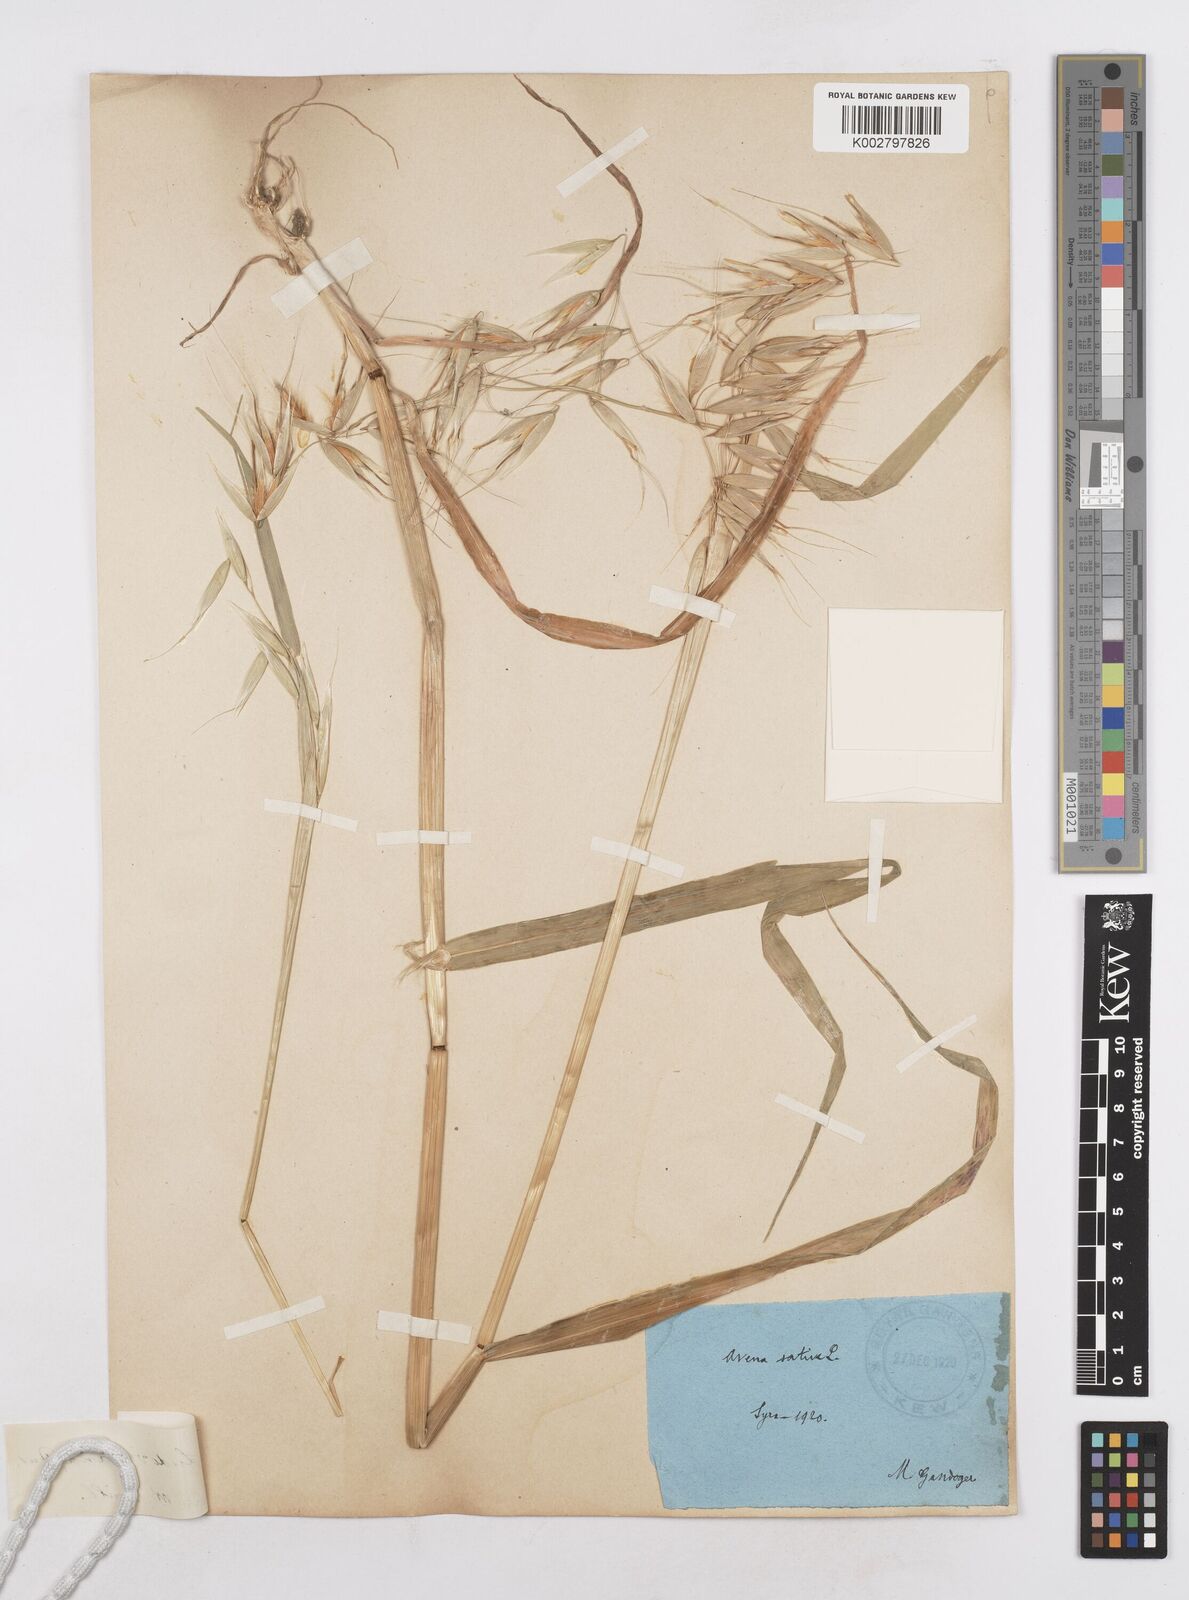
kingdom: Plantae
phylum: Tracheophyta
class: Liliopsida
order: Poales
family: Poaceae
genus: Avena
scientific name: Avena sterilis
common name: Animated oat
